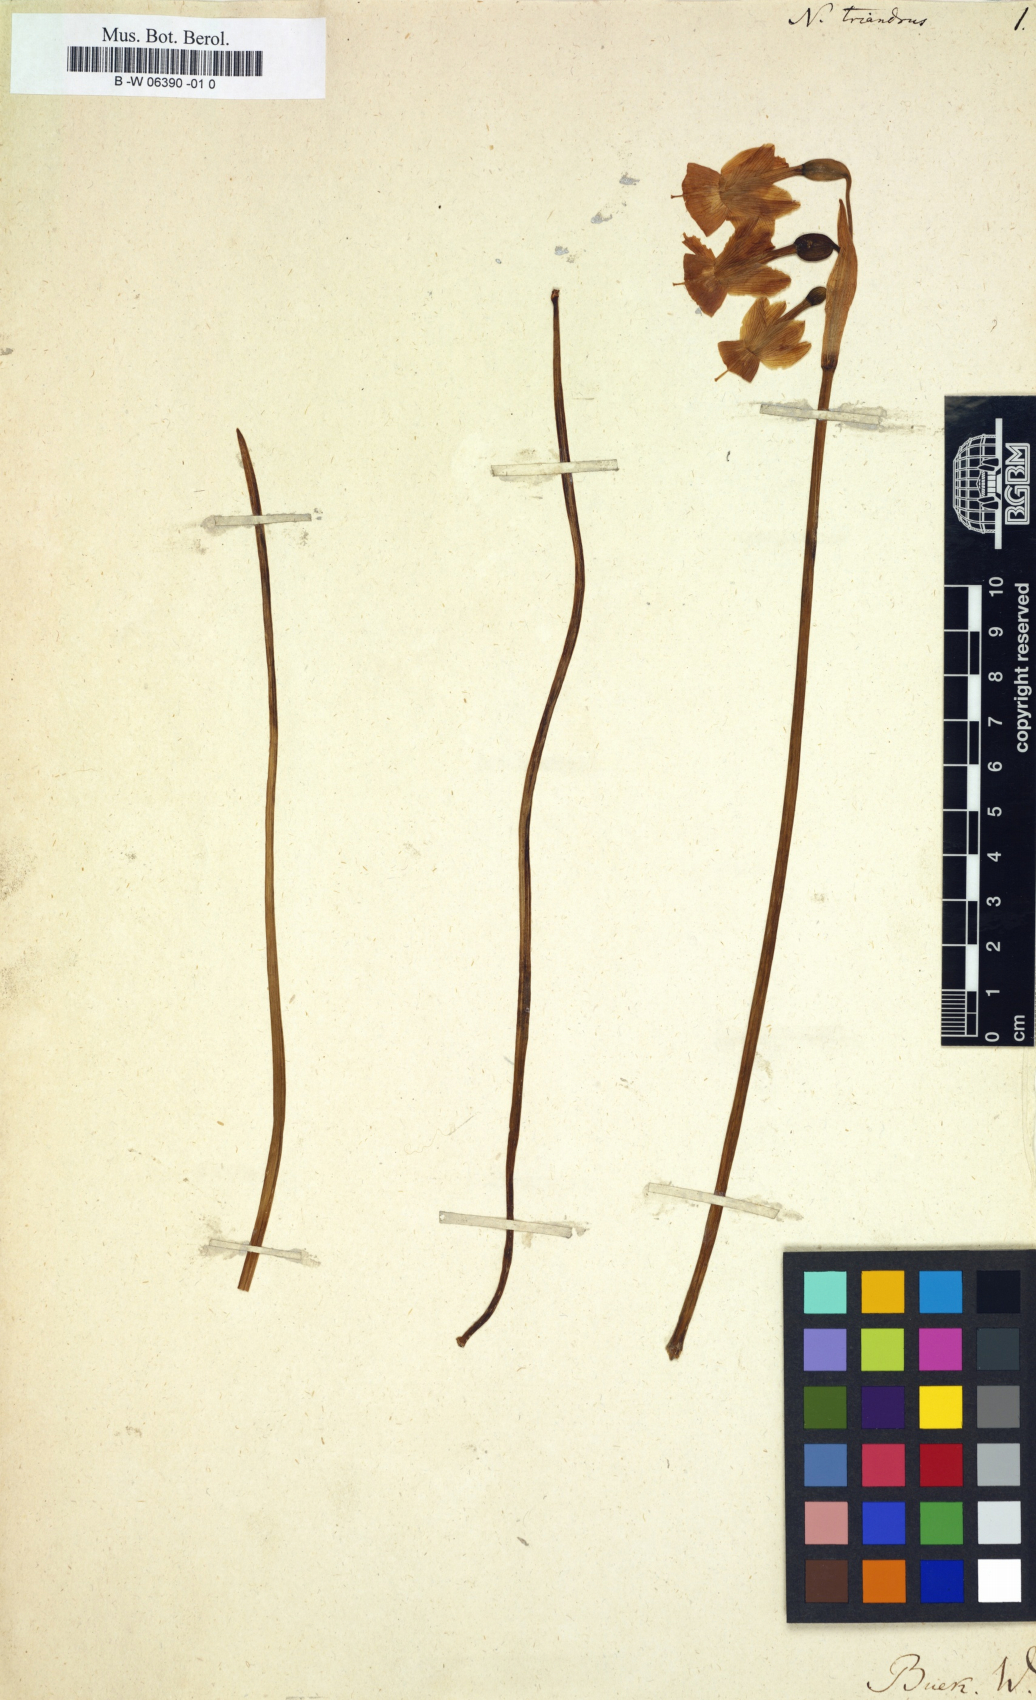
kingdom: Plantae
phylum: Tracheophyta
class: Liliopsida
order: Asparagales
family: Amaryllidaceae
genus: Narcissus
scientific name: Narcissus triandrus
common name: Angel's-tears
